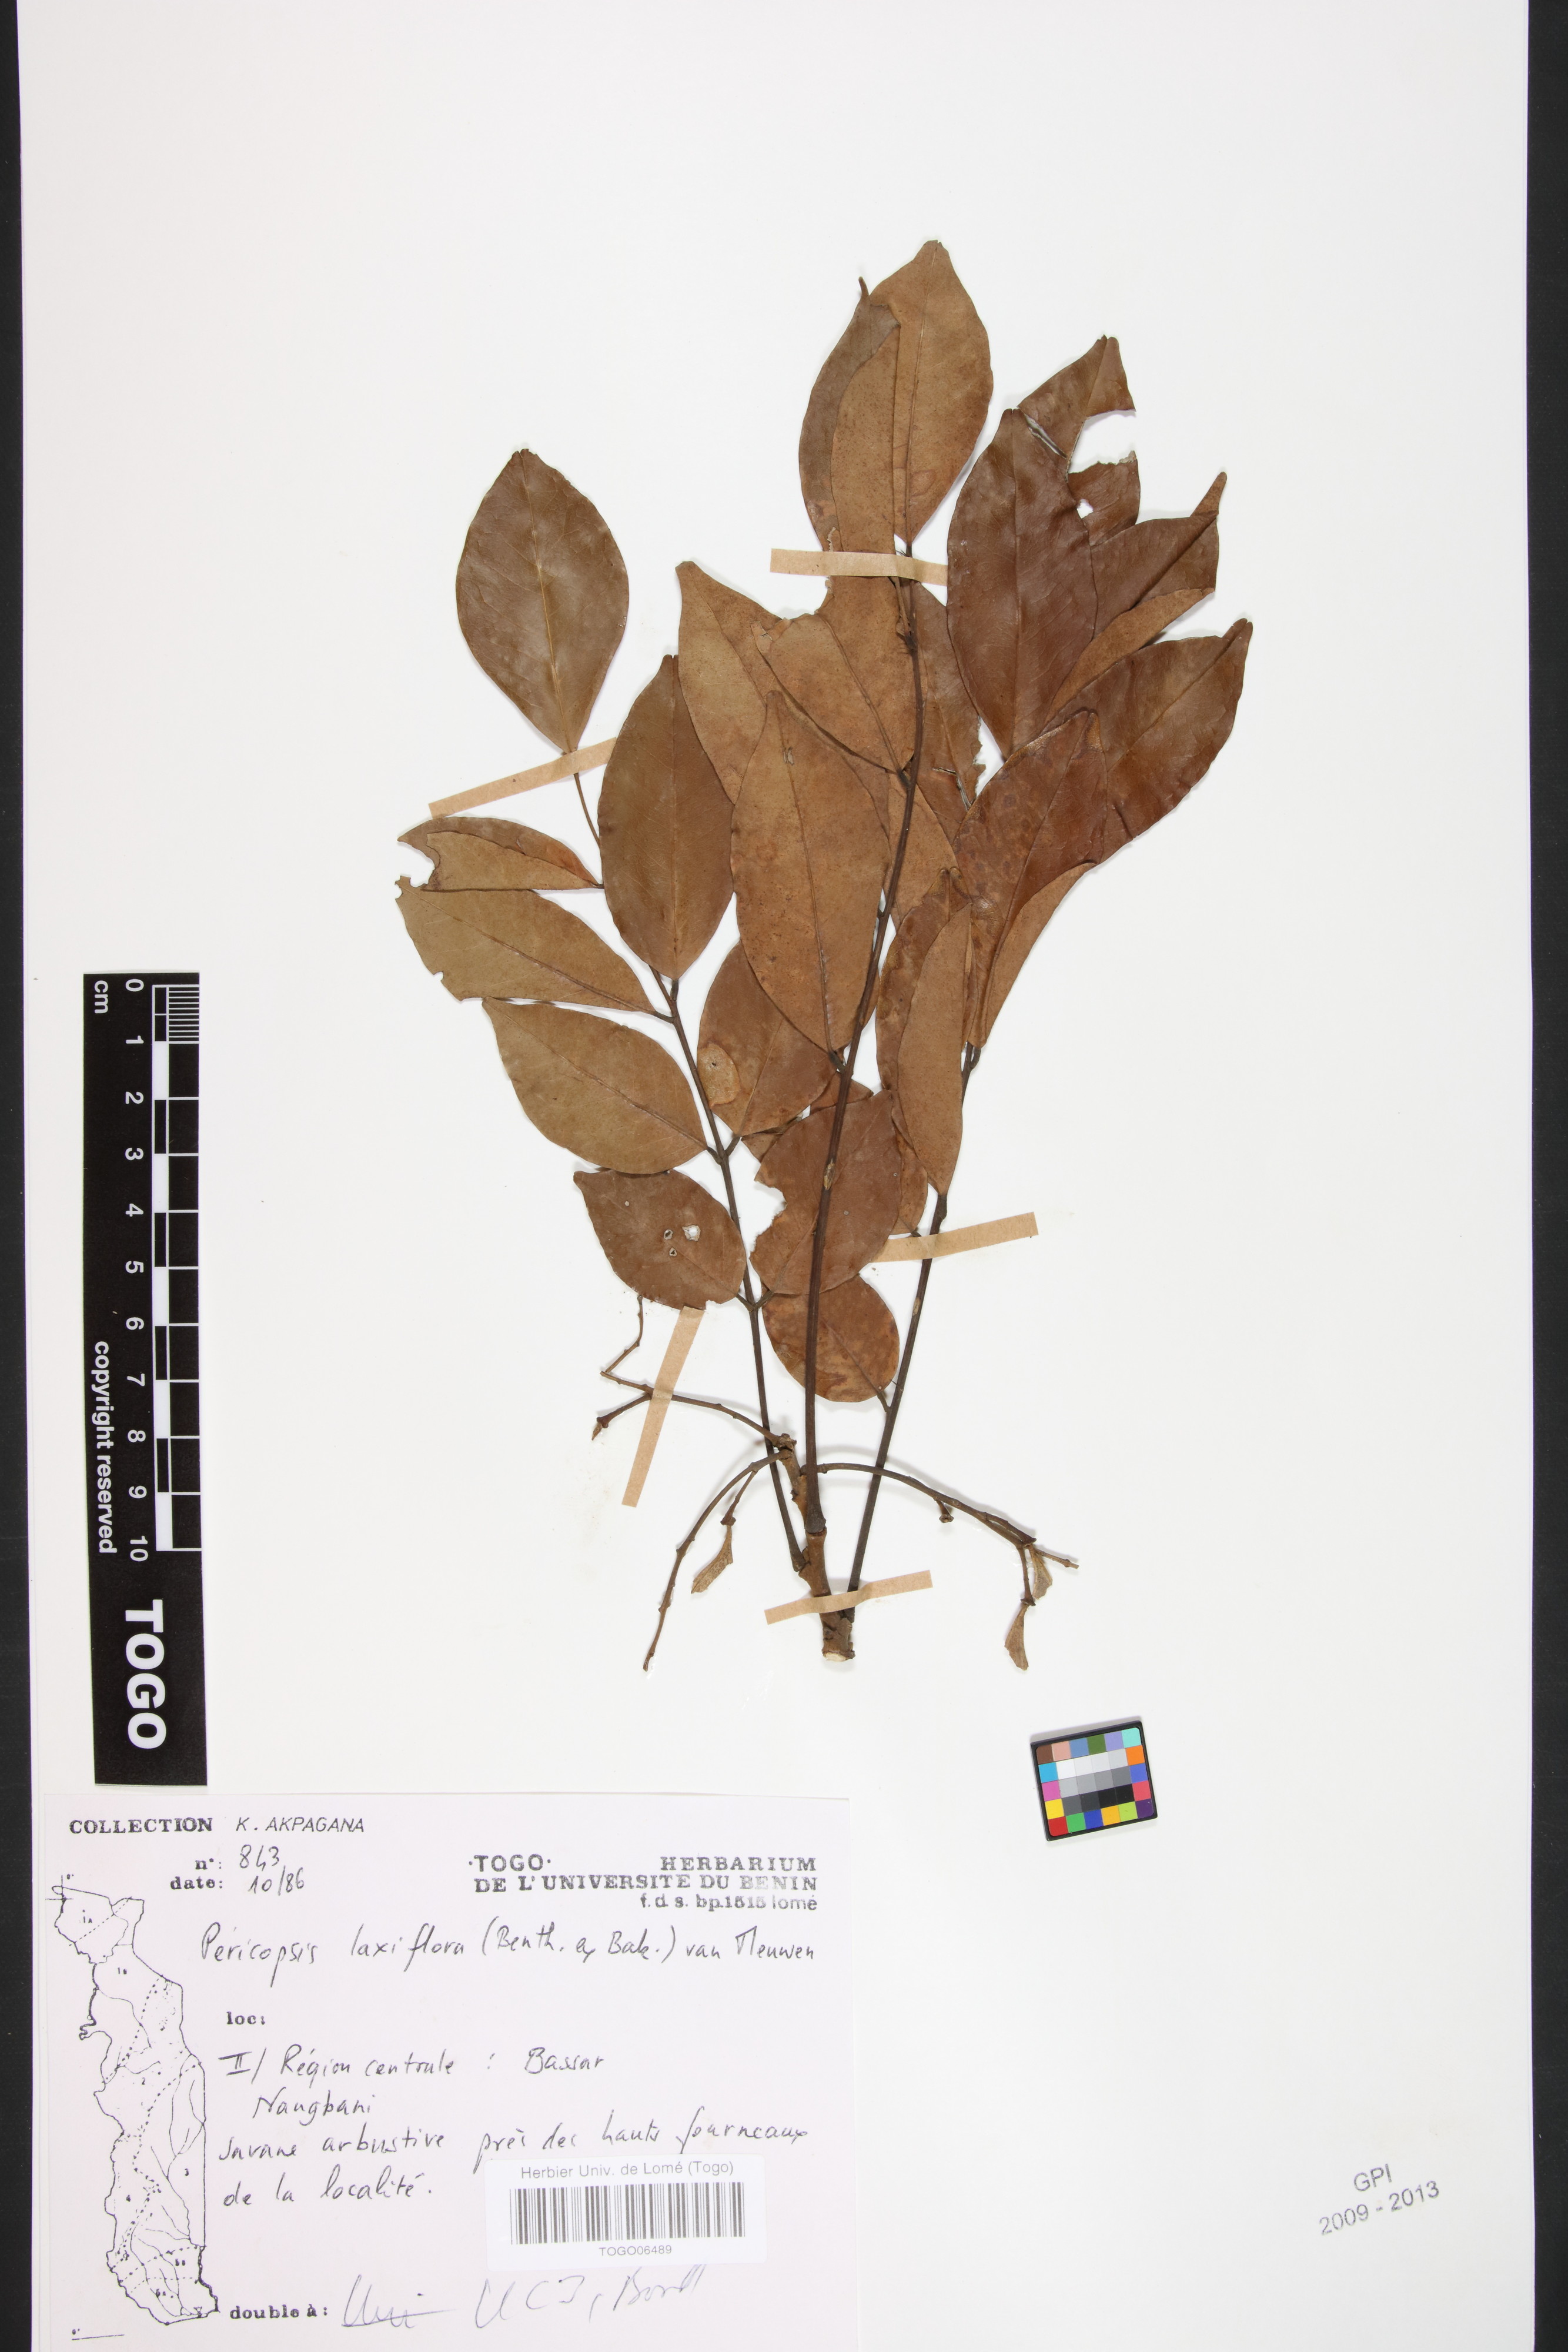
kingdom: Plantae
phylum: Tracheophyta
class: Magnoliopsida
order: Fabales
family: Fabaceae
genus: Pericopsis
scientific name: Pericopsis laxiflora
